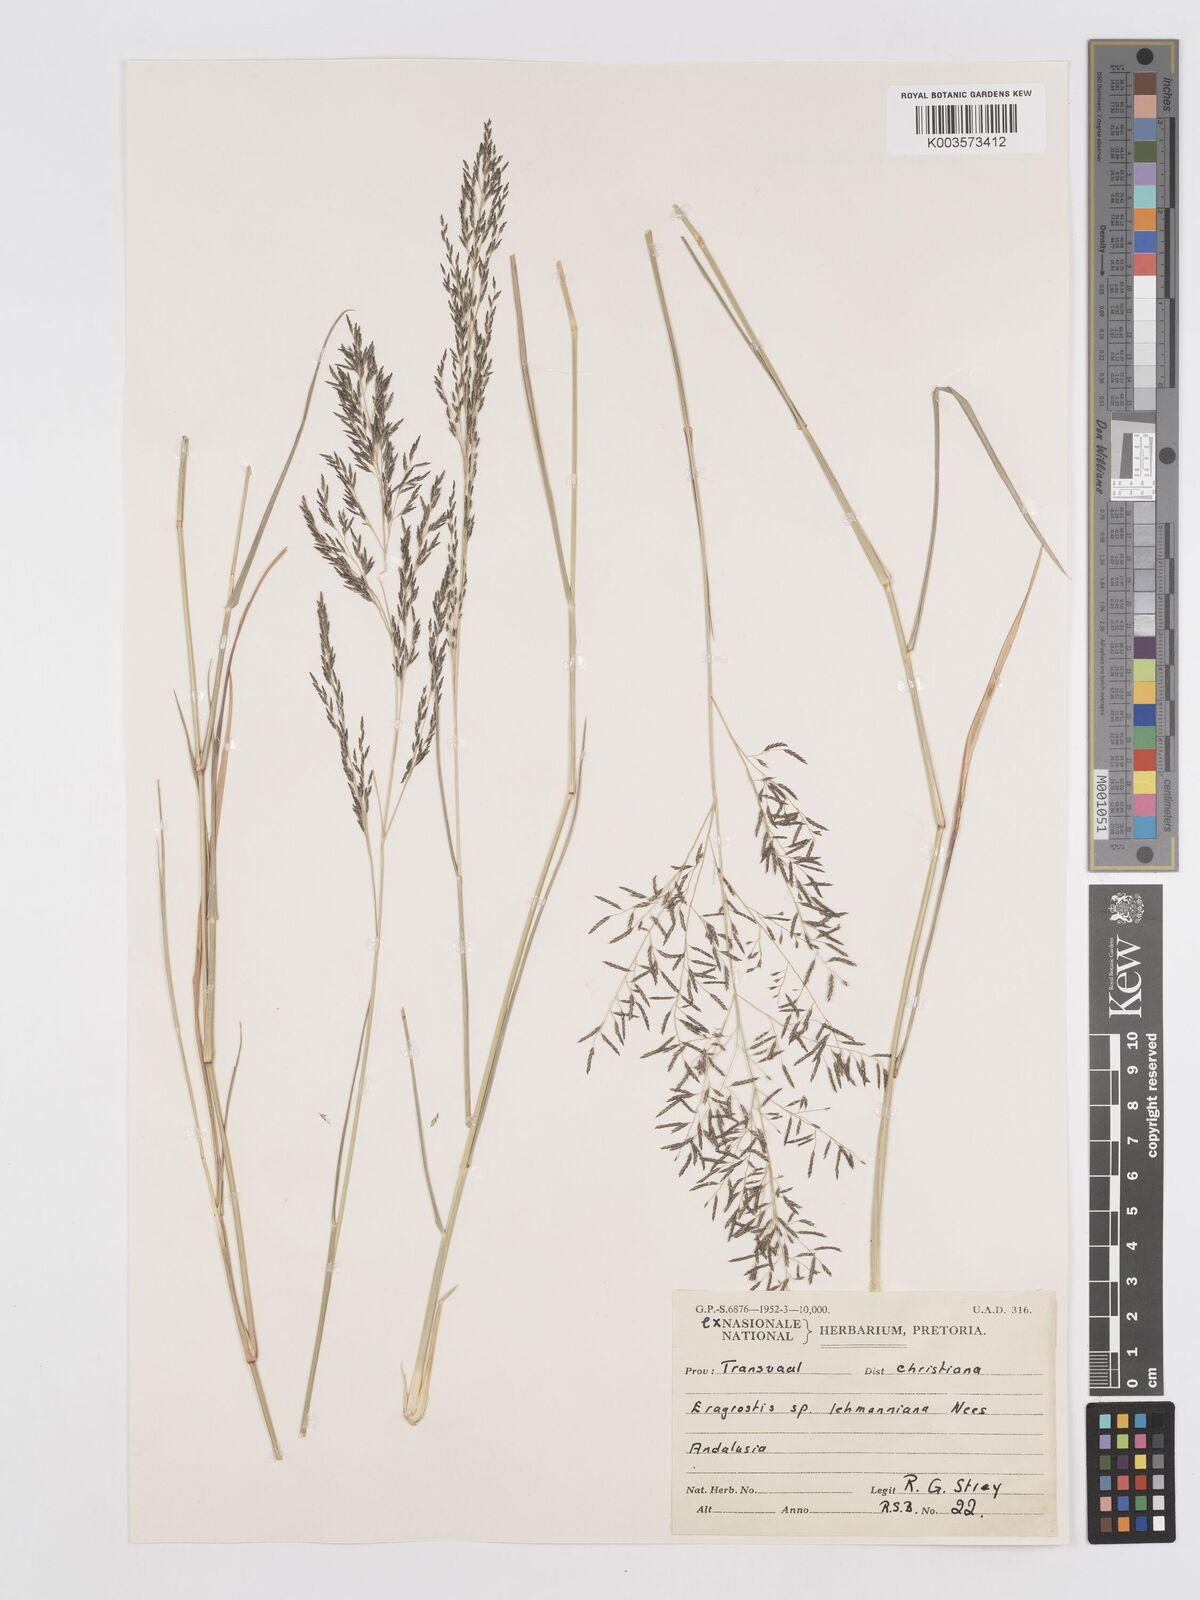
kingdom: Plantae
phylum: Tracheophyta
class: Liliopsida
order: Poales
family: Poaceae
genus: Eragrostis
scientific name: Eragrostis lehmanniana
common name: Lehmann lovegrass
